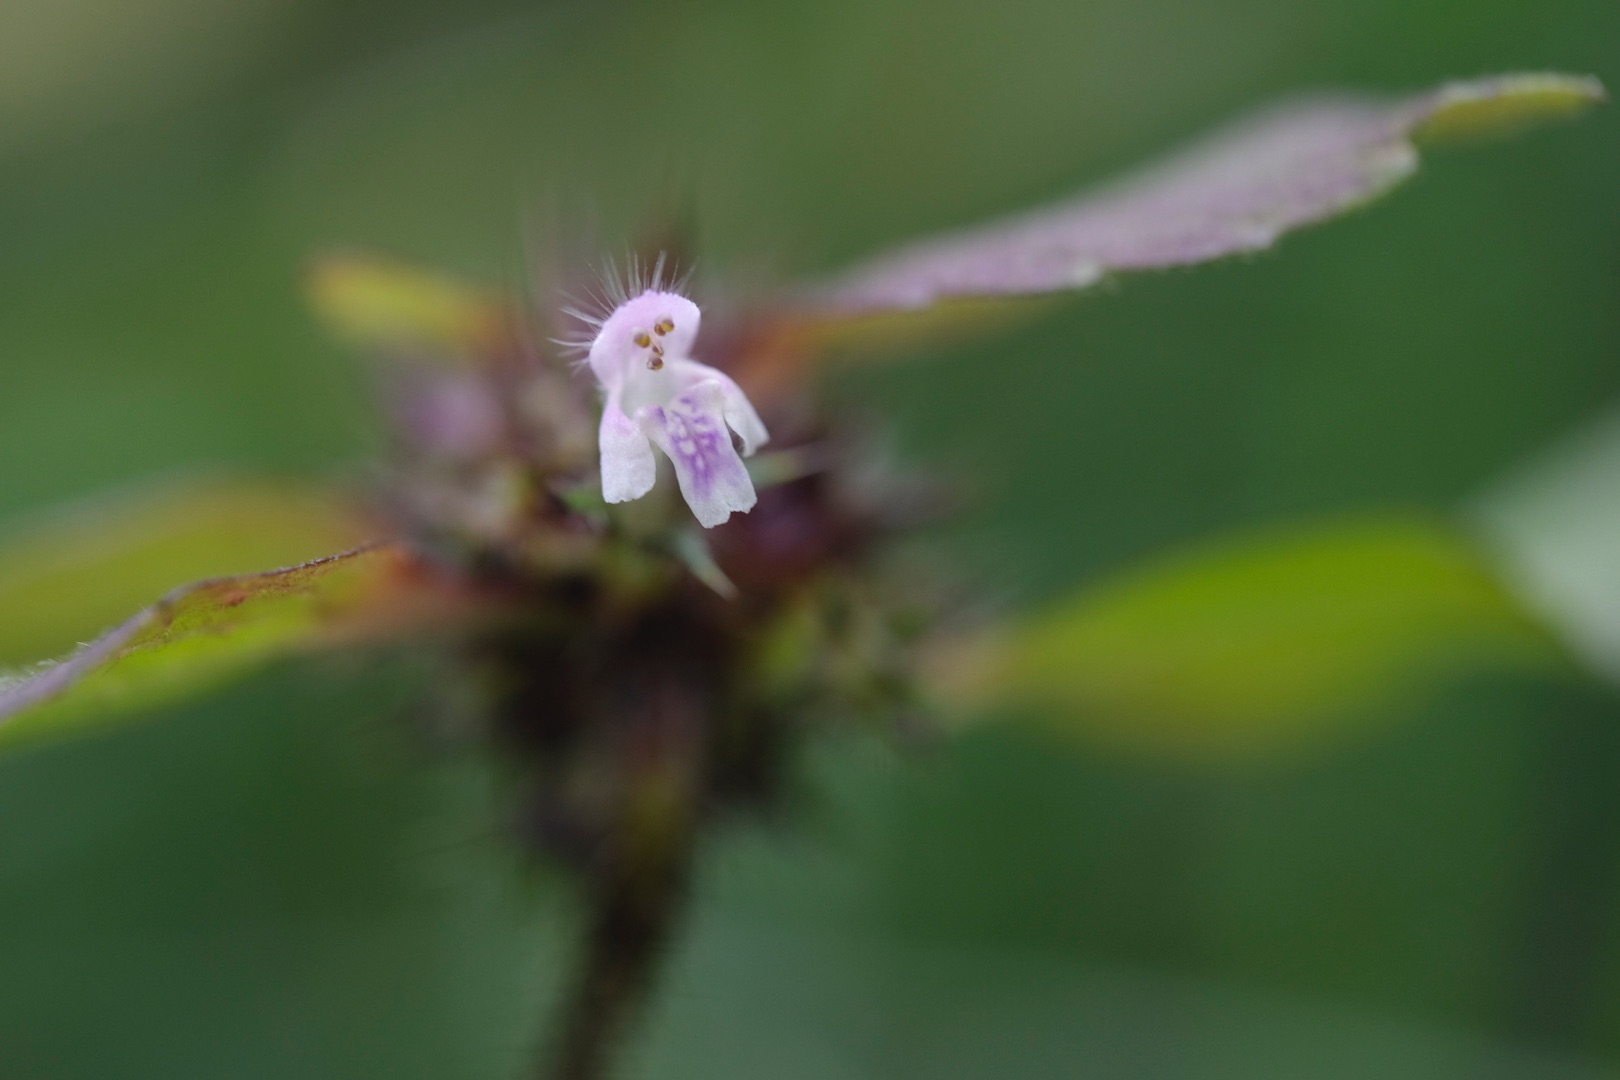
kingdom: Plantae
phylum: Tracheophyta
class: Magnoliopsida
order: Lamiales
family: Lamiaceae
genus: Galeopsis
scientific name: Galeopsis bifida
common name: Skov-hanekro
